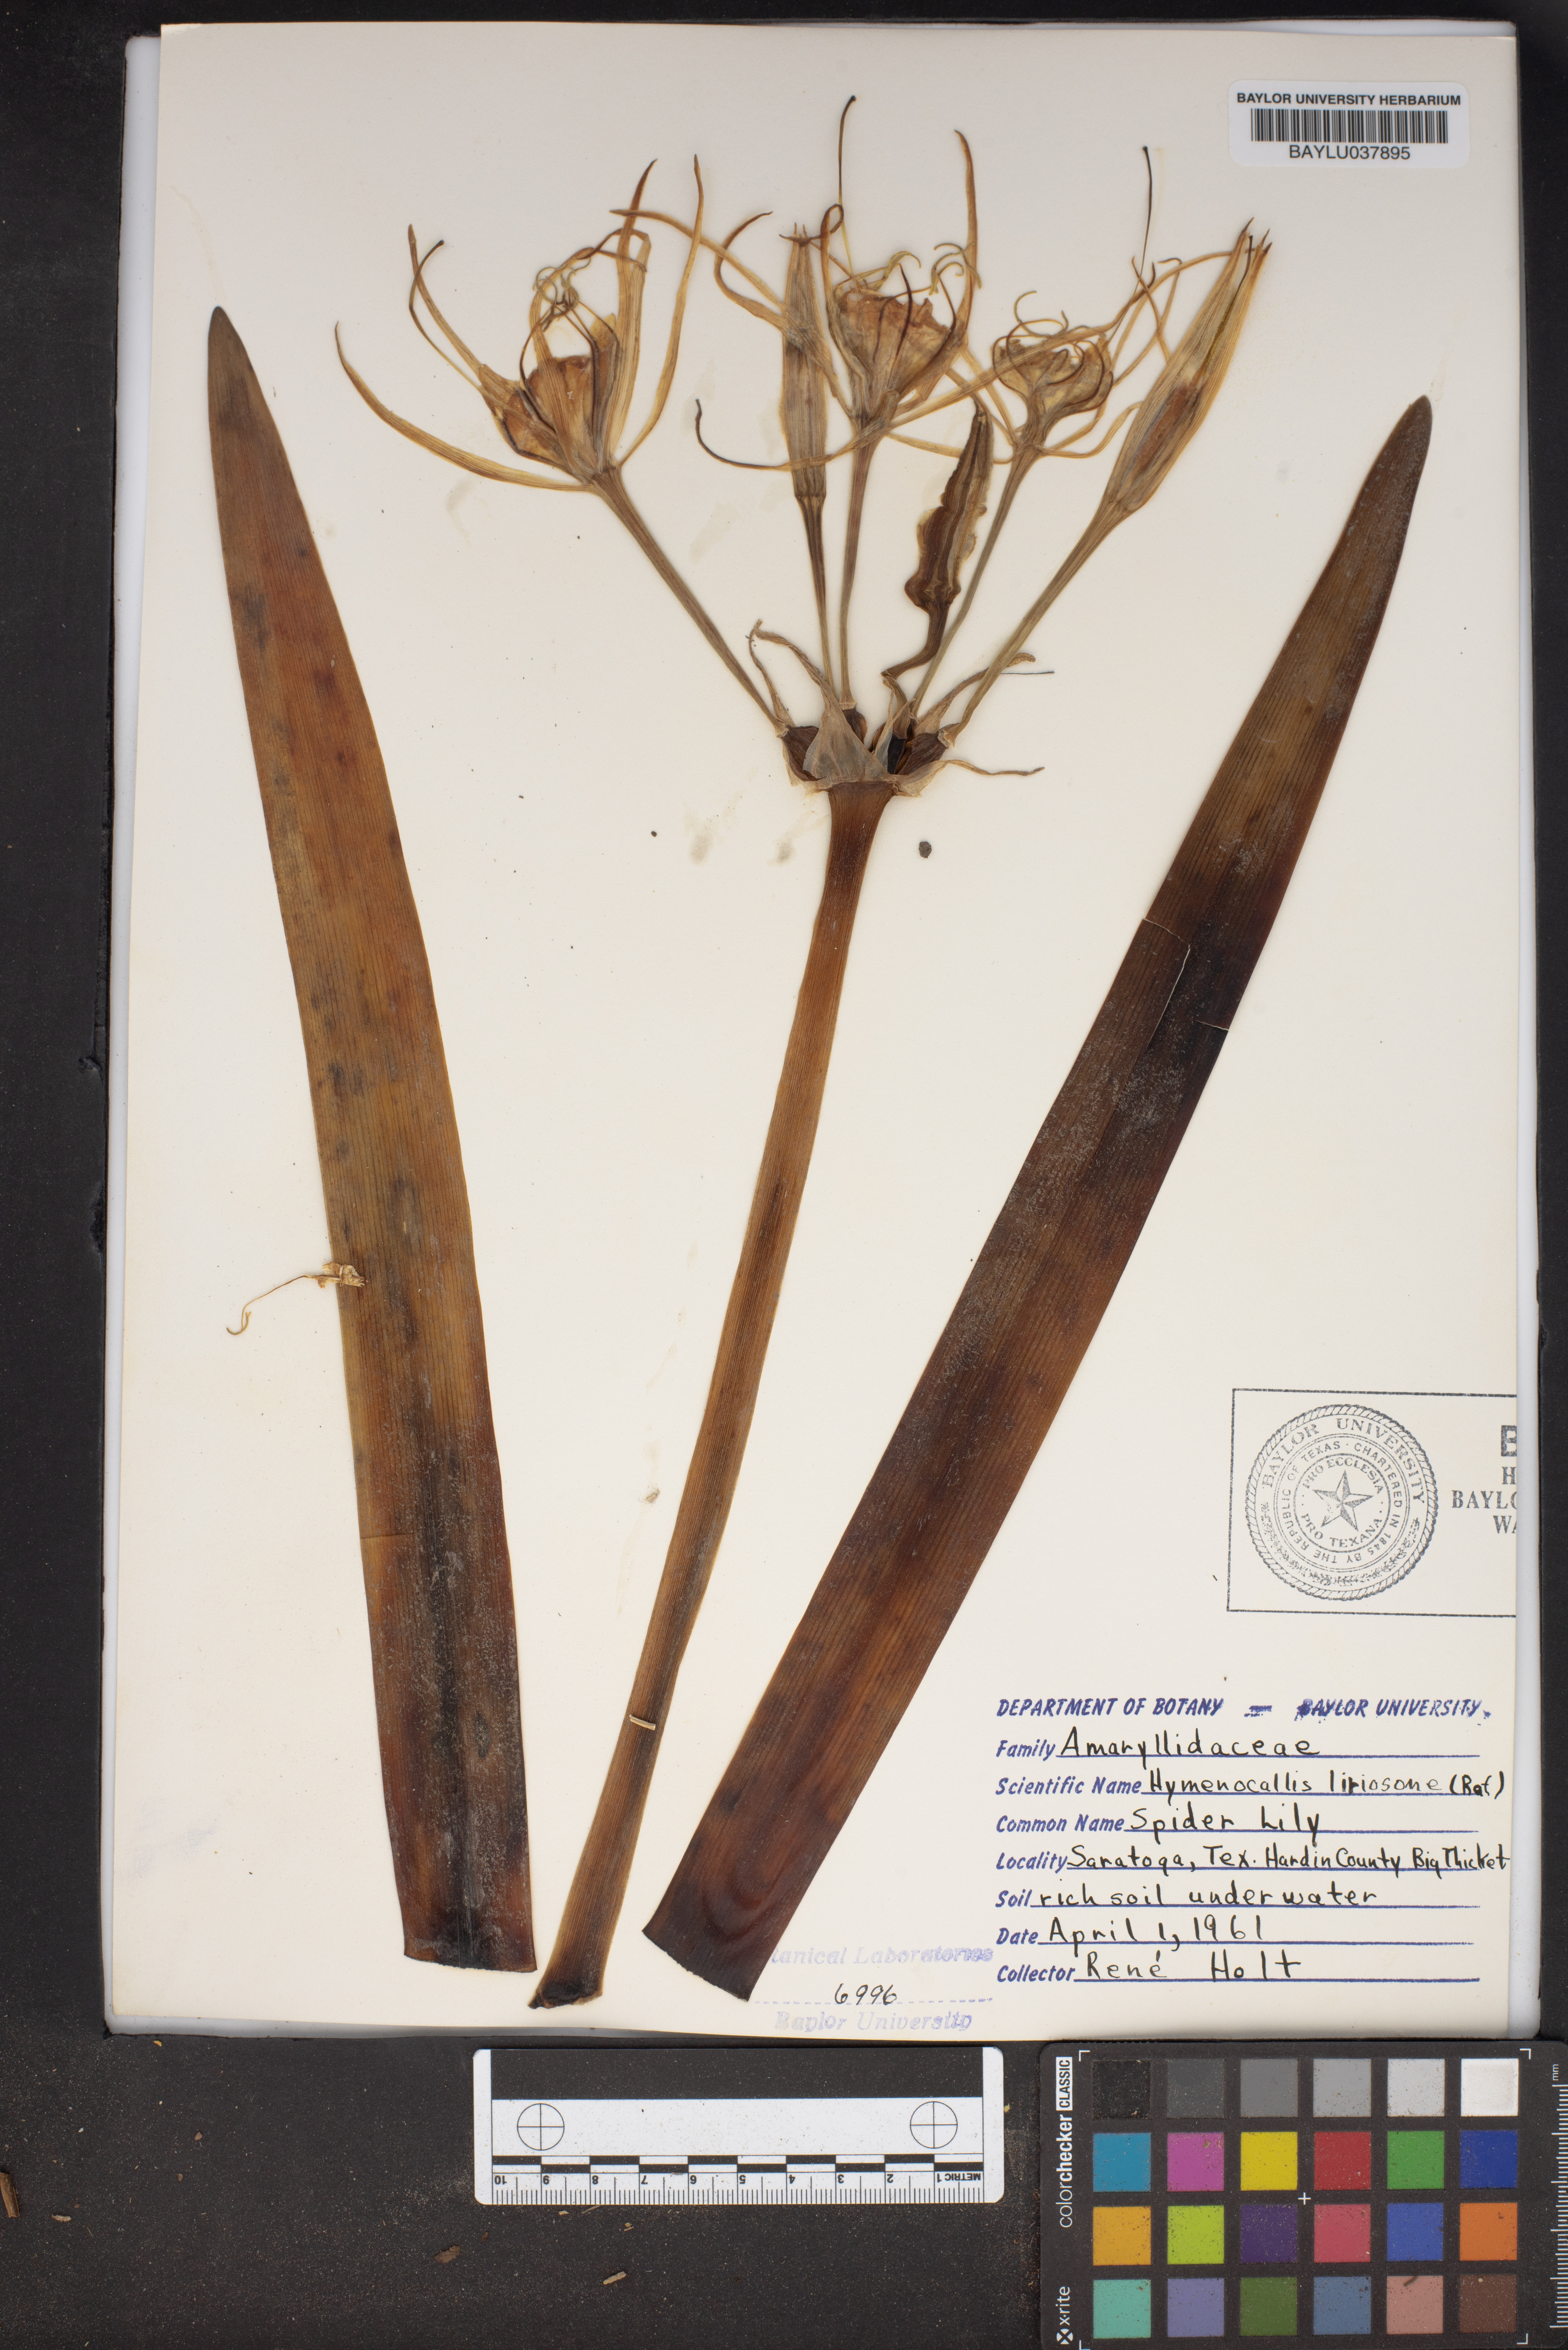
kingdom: Plantae
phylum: Tracheophyta
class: Liliopsida
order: Asparagales
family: Amaryllidaceae
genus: Hymenocallis
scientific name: Hymenocallis liriosme
